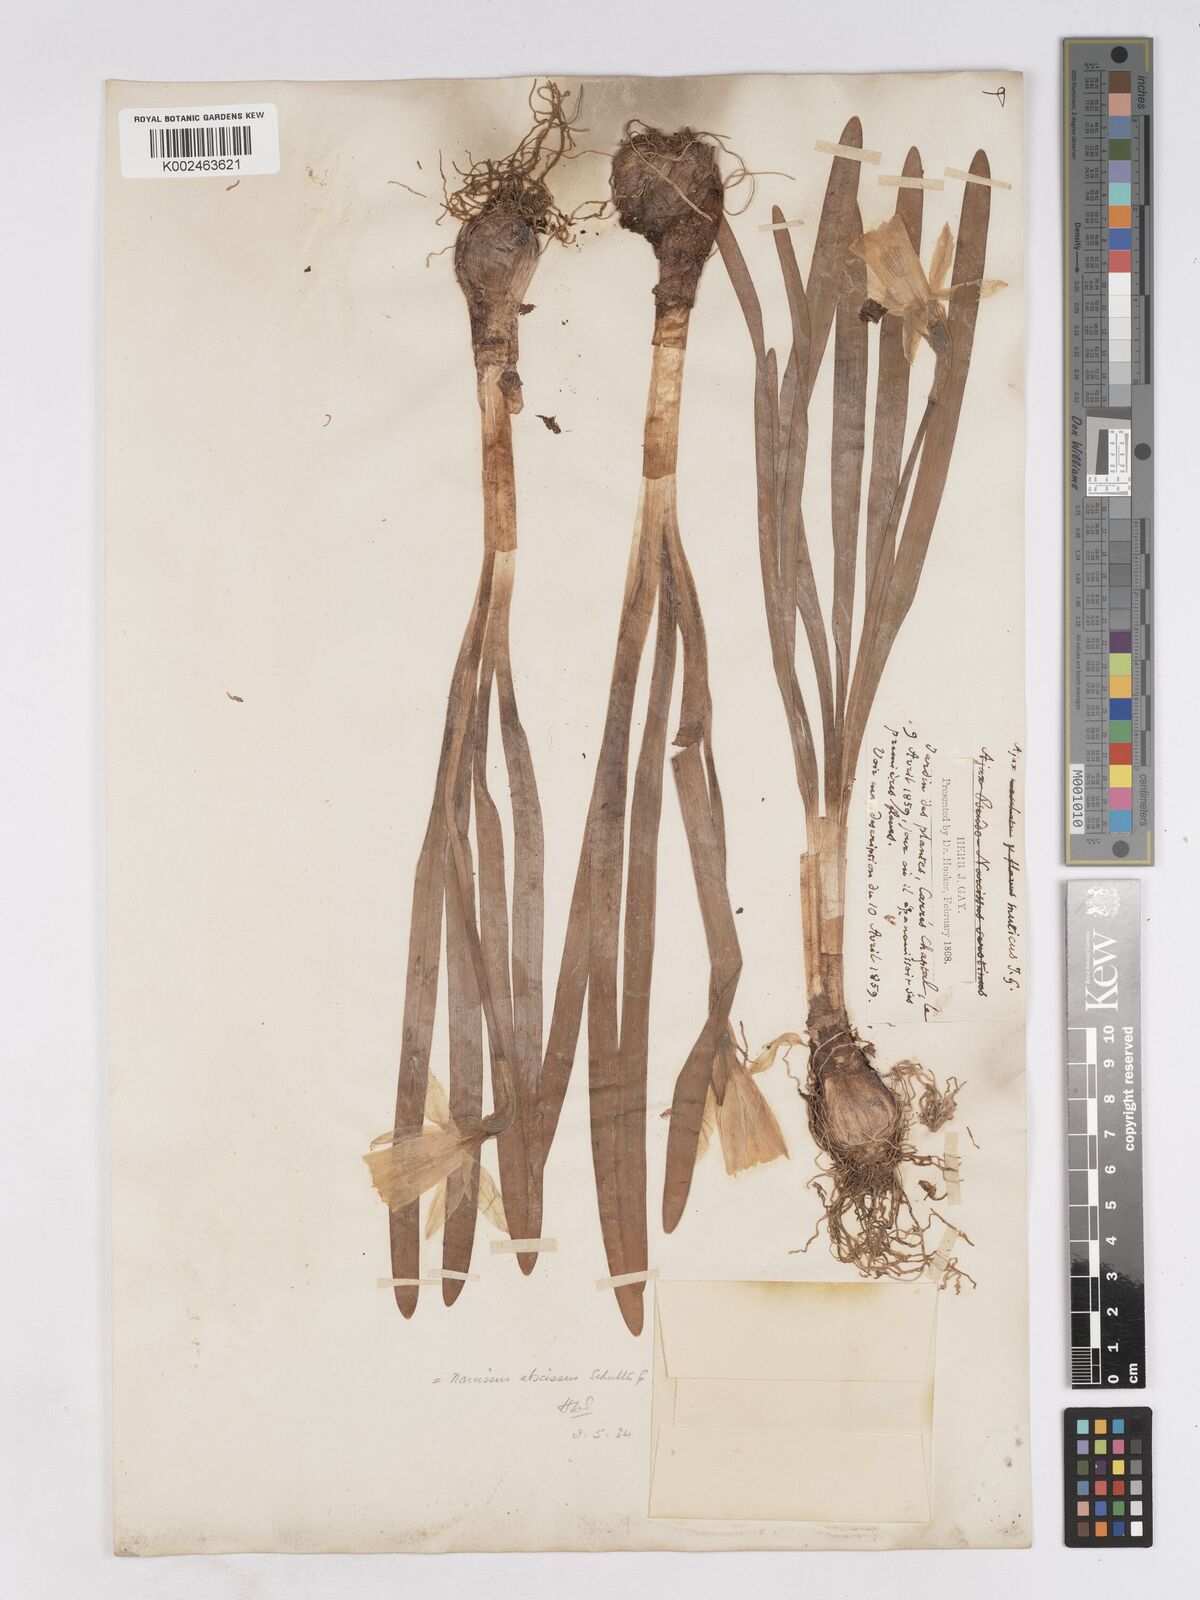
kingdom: Plantae
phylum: Tracheophyta
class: Liliopsida
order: Asparagales
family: Amaryllidaceae
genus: Narcissus
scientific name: Narcissus abscissus
